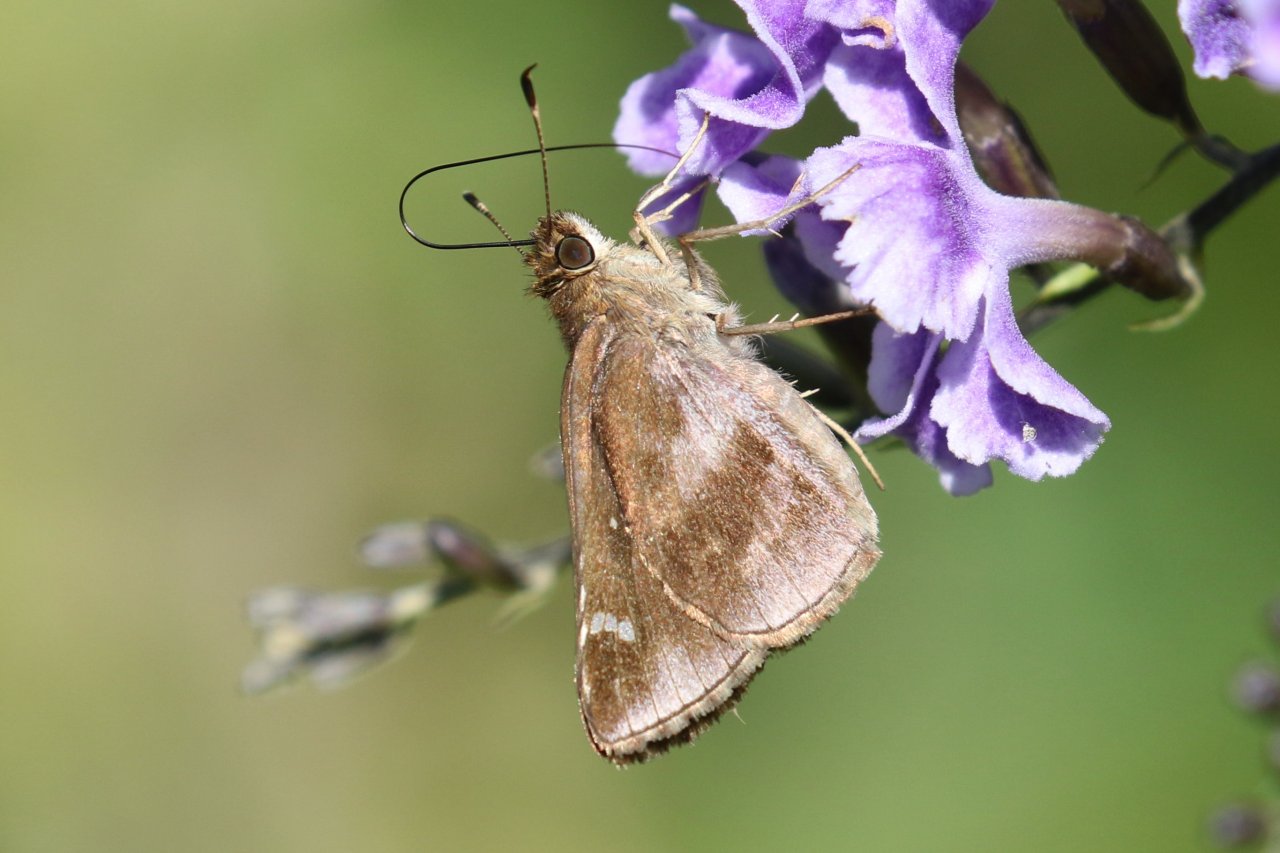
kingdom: Animalia
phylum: Arthropoda
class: Insecta
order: Lepidoptera
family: Hesperiidae
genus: Lerema
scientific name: Lerema accius
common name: Clouded Skipper
